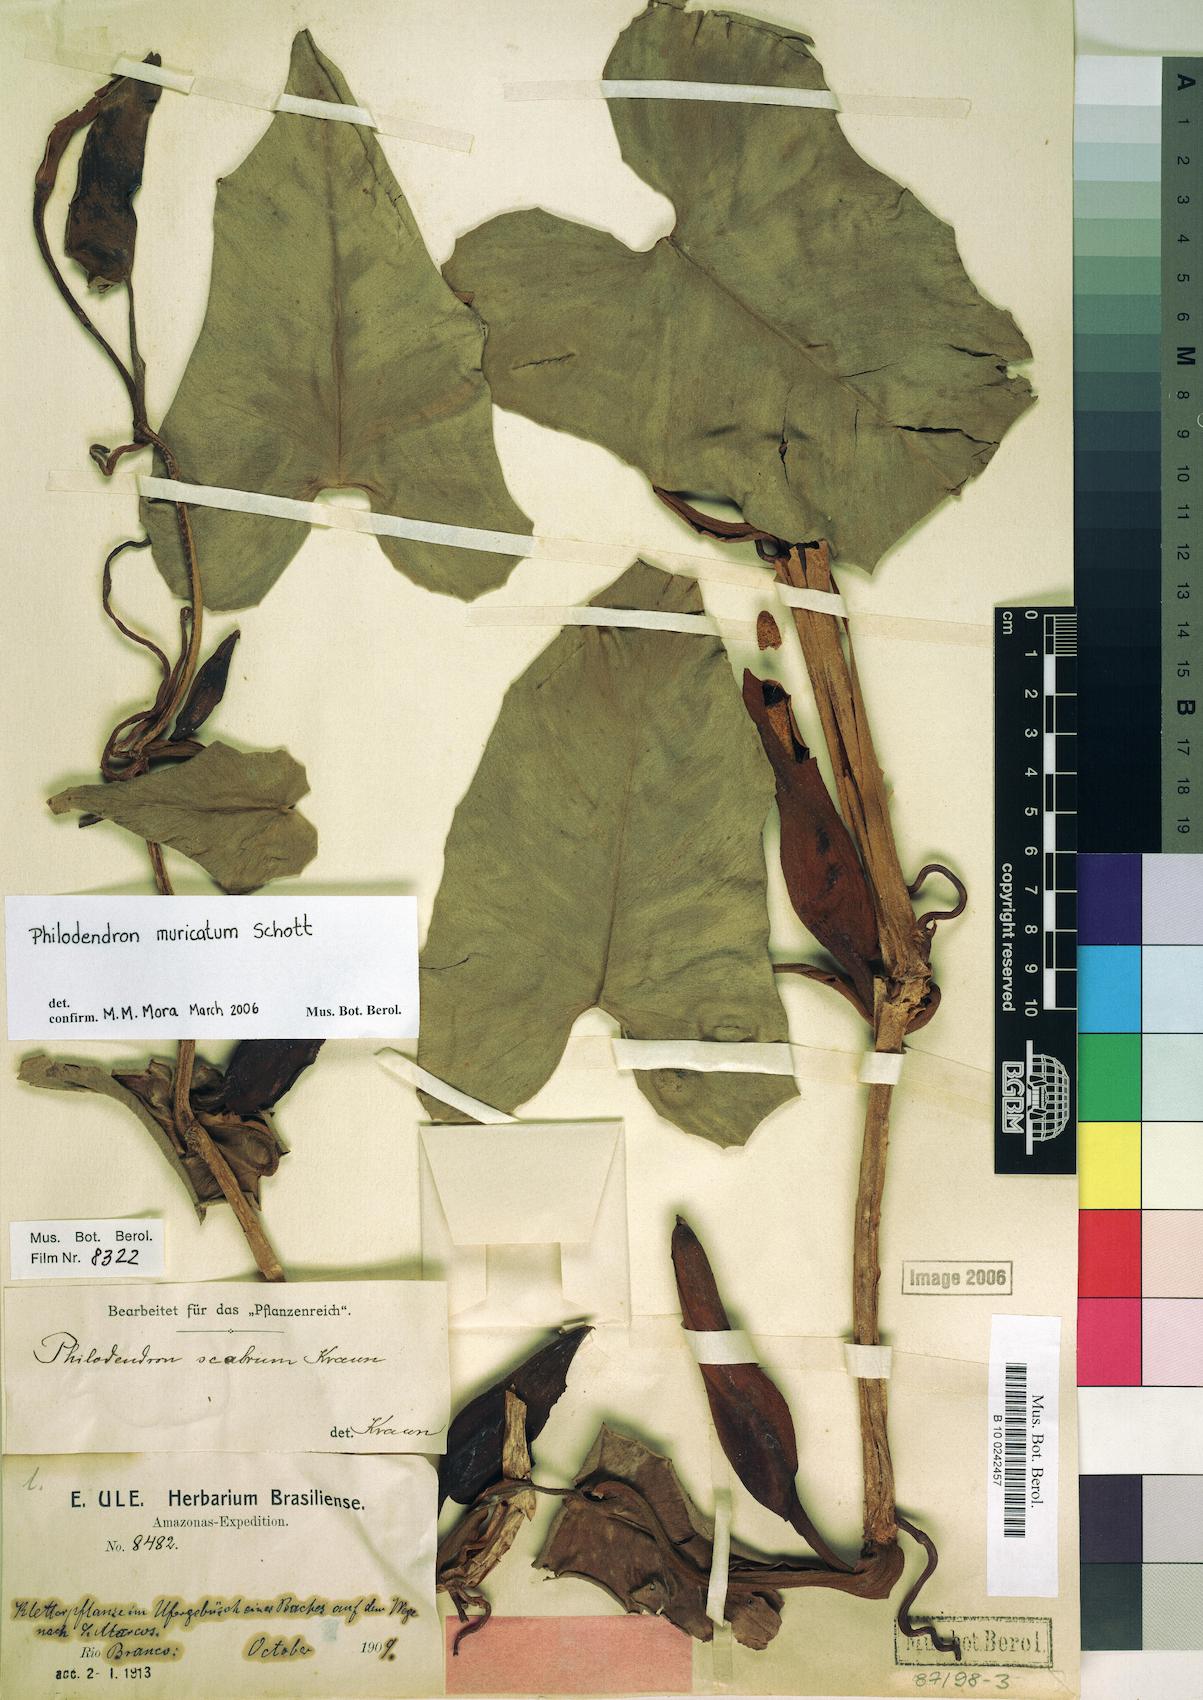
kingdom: Plantae
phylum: Tracheophyta
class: Liliopsida
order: Alismatales
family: Araceae
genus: Philodendron
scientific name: Philodendron muricatum
